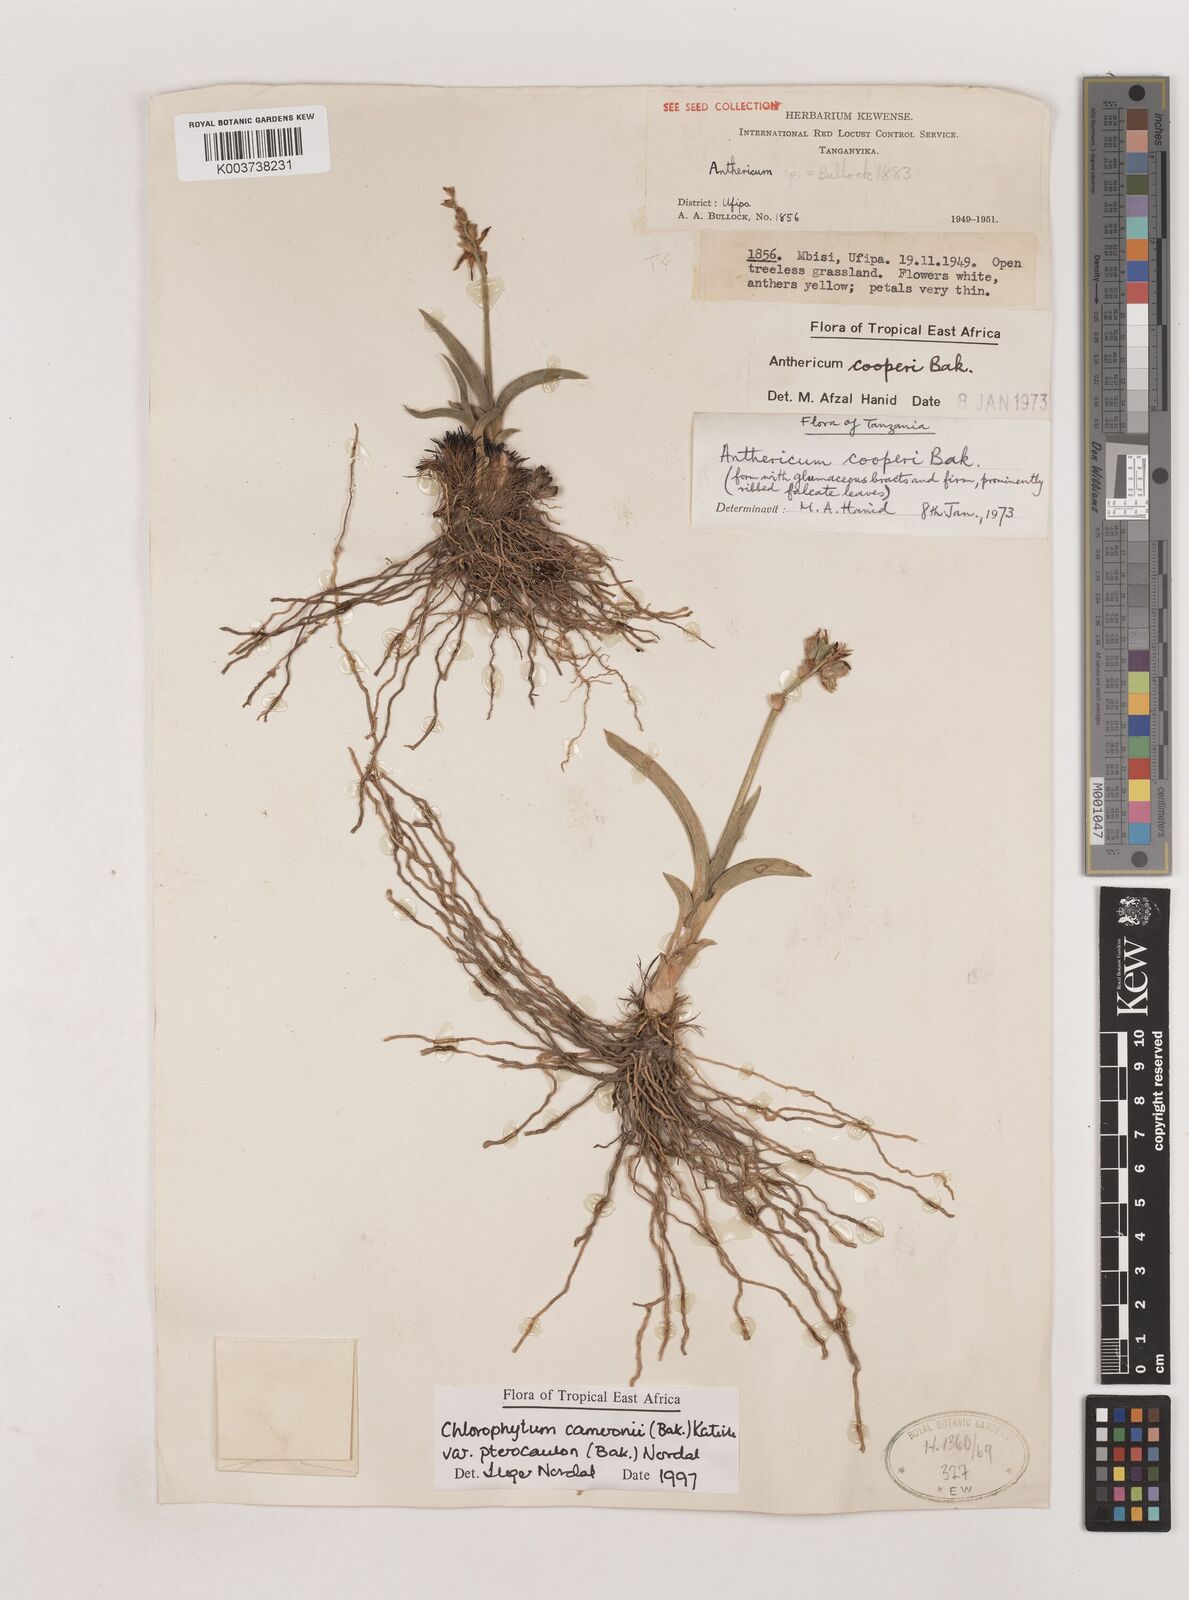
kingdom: Plantae
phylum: Tracheophyta
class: Liliopsida
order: Asparagales
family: Asparagaceae
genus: Chlorophytum
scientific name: Chlorophytum cameronii
